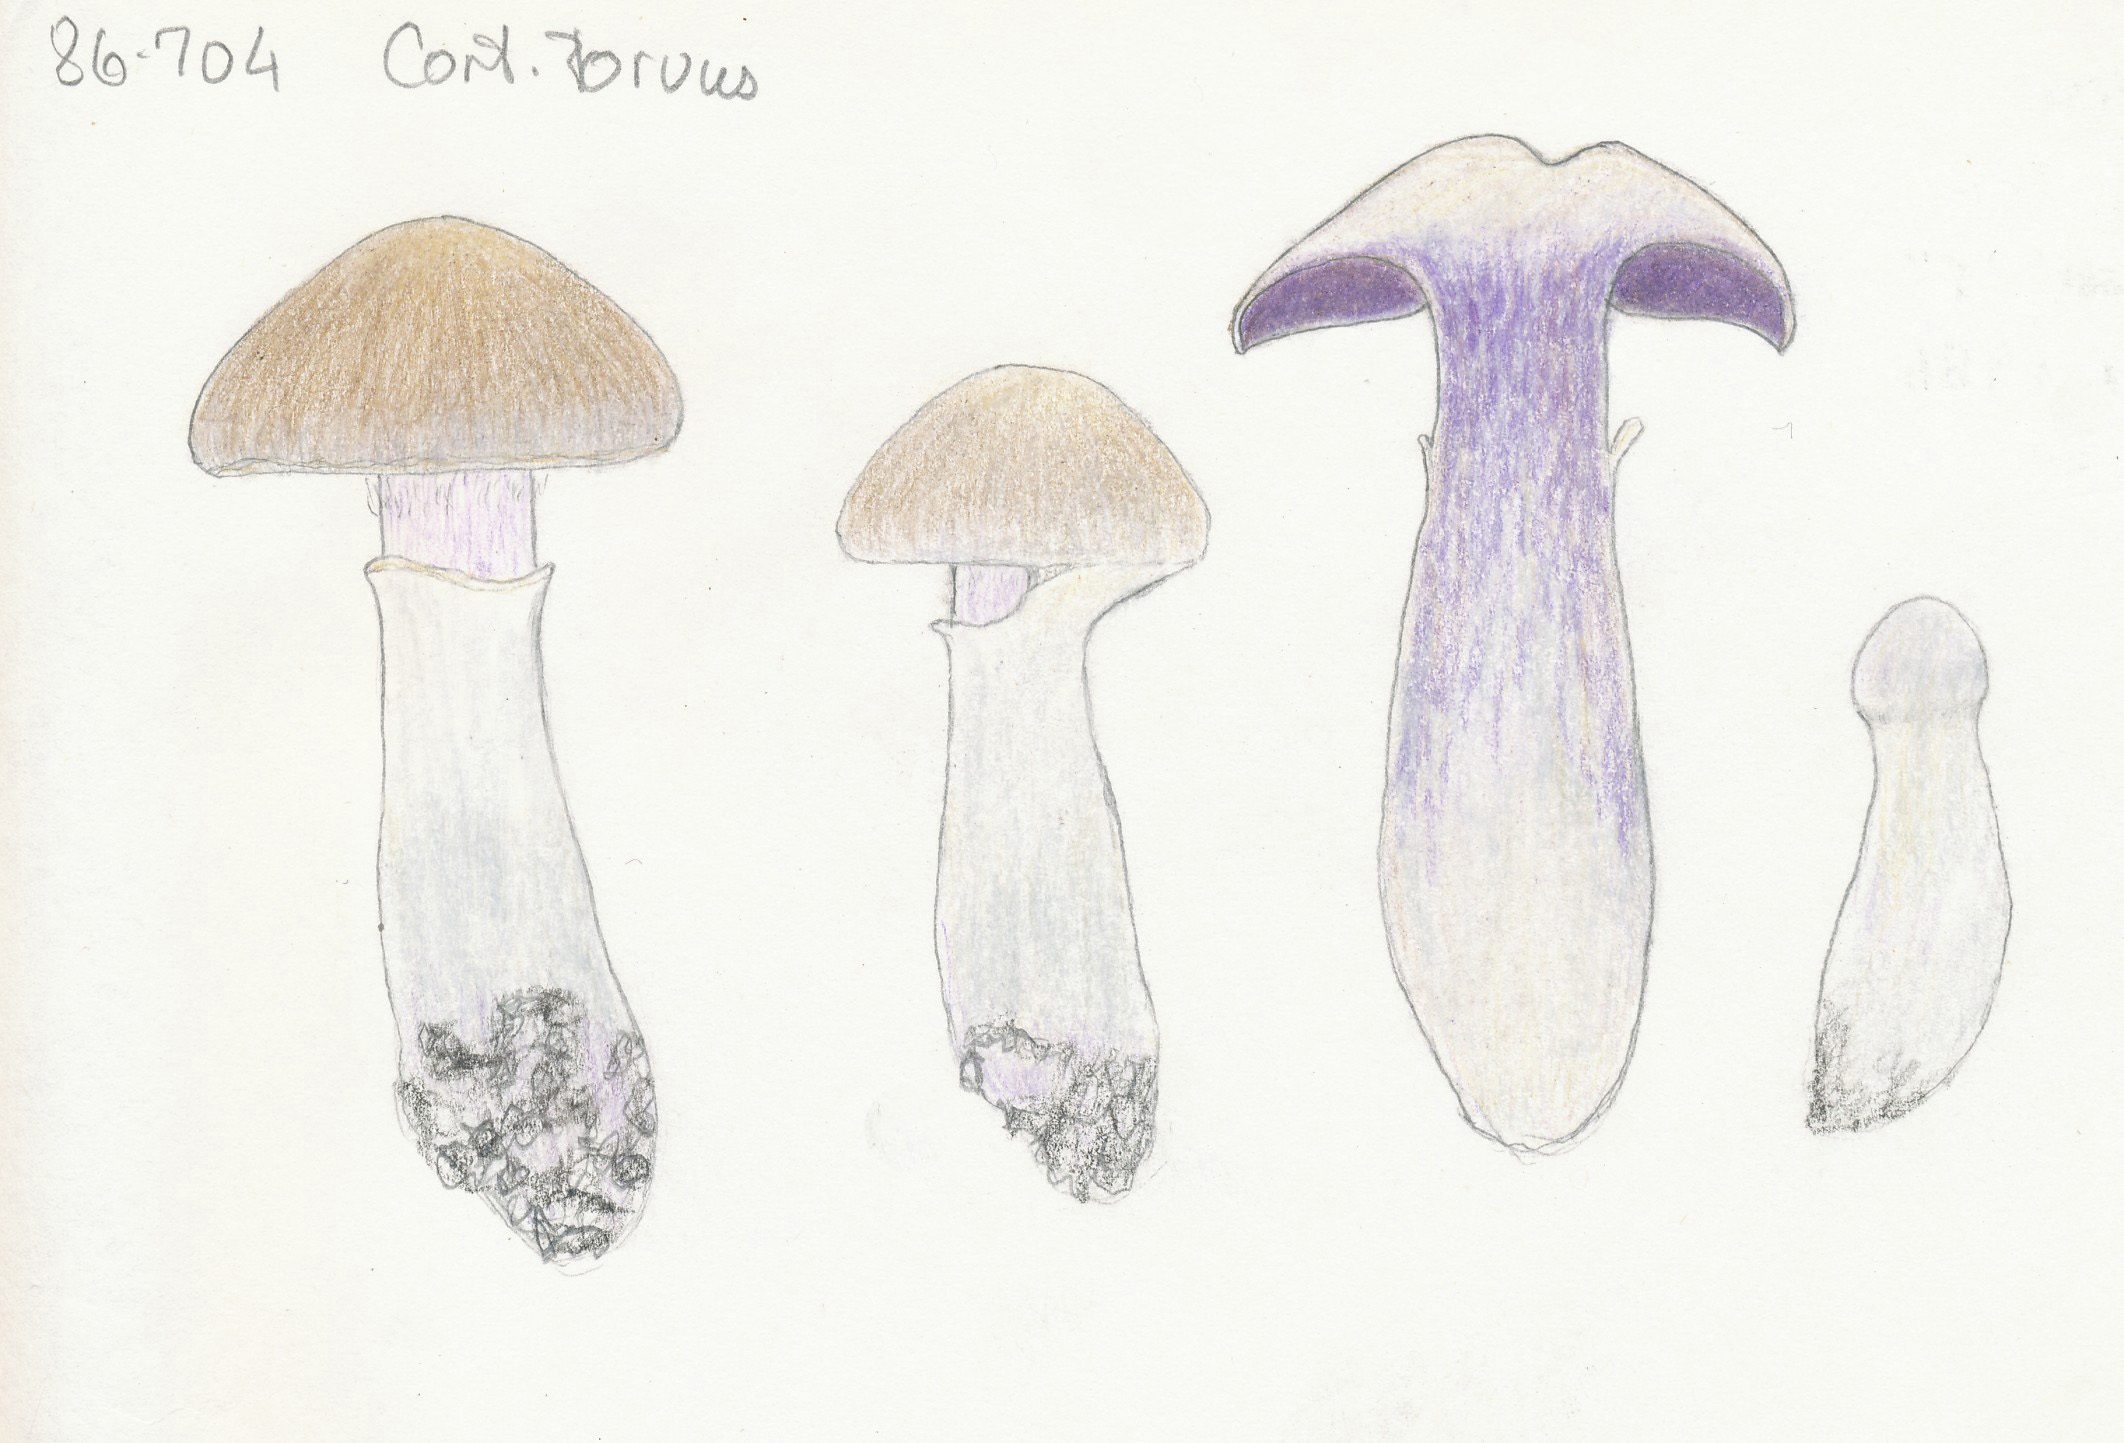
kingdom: Fungi
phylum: Basidiomycota
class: Agaricomycetes
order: Agaricales
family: Cortinariaceae
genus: Cortinarius
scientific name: Cortinarius torvus
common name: champignonagtig slørhat
